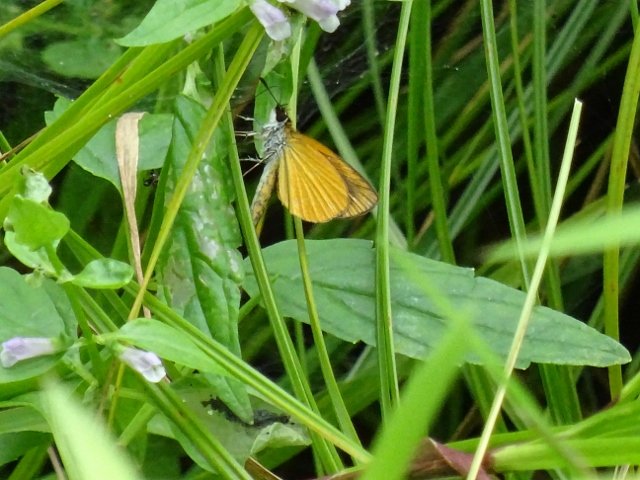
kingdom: Animalia
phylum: Arthropoda
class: Insecta
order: Lepidoptera
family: Hesperiidae
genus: Ancyloxypha
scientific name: Ancyloxypha numitor
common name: Least Skipper
